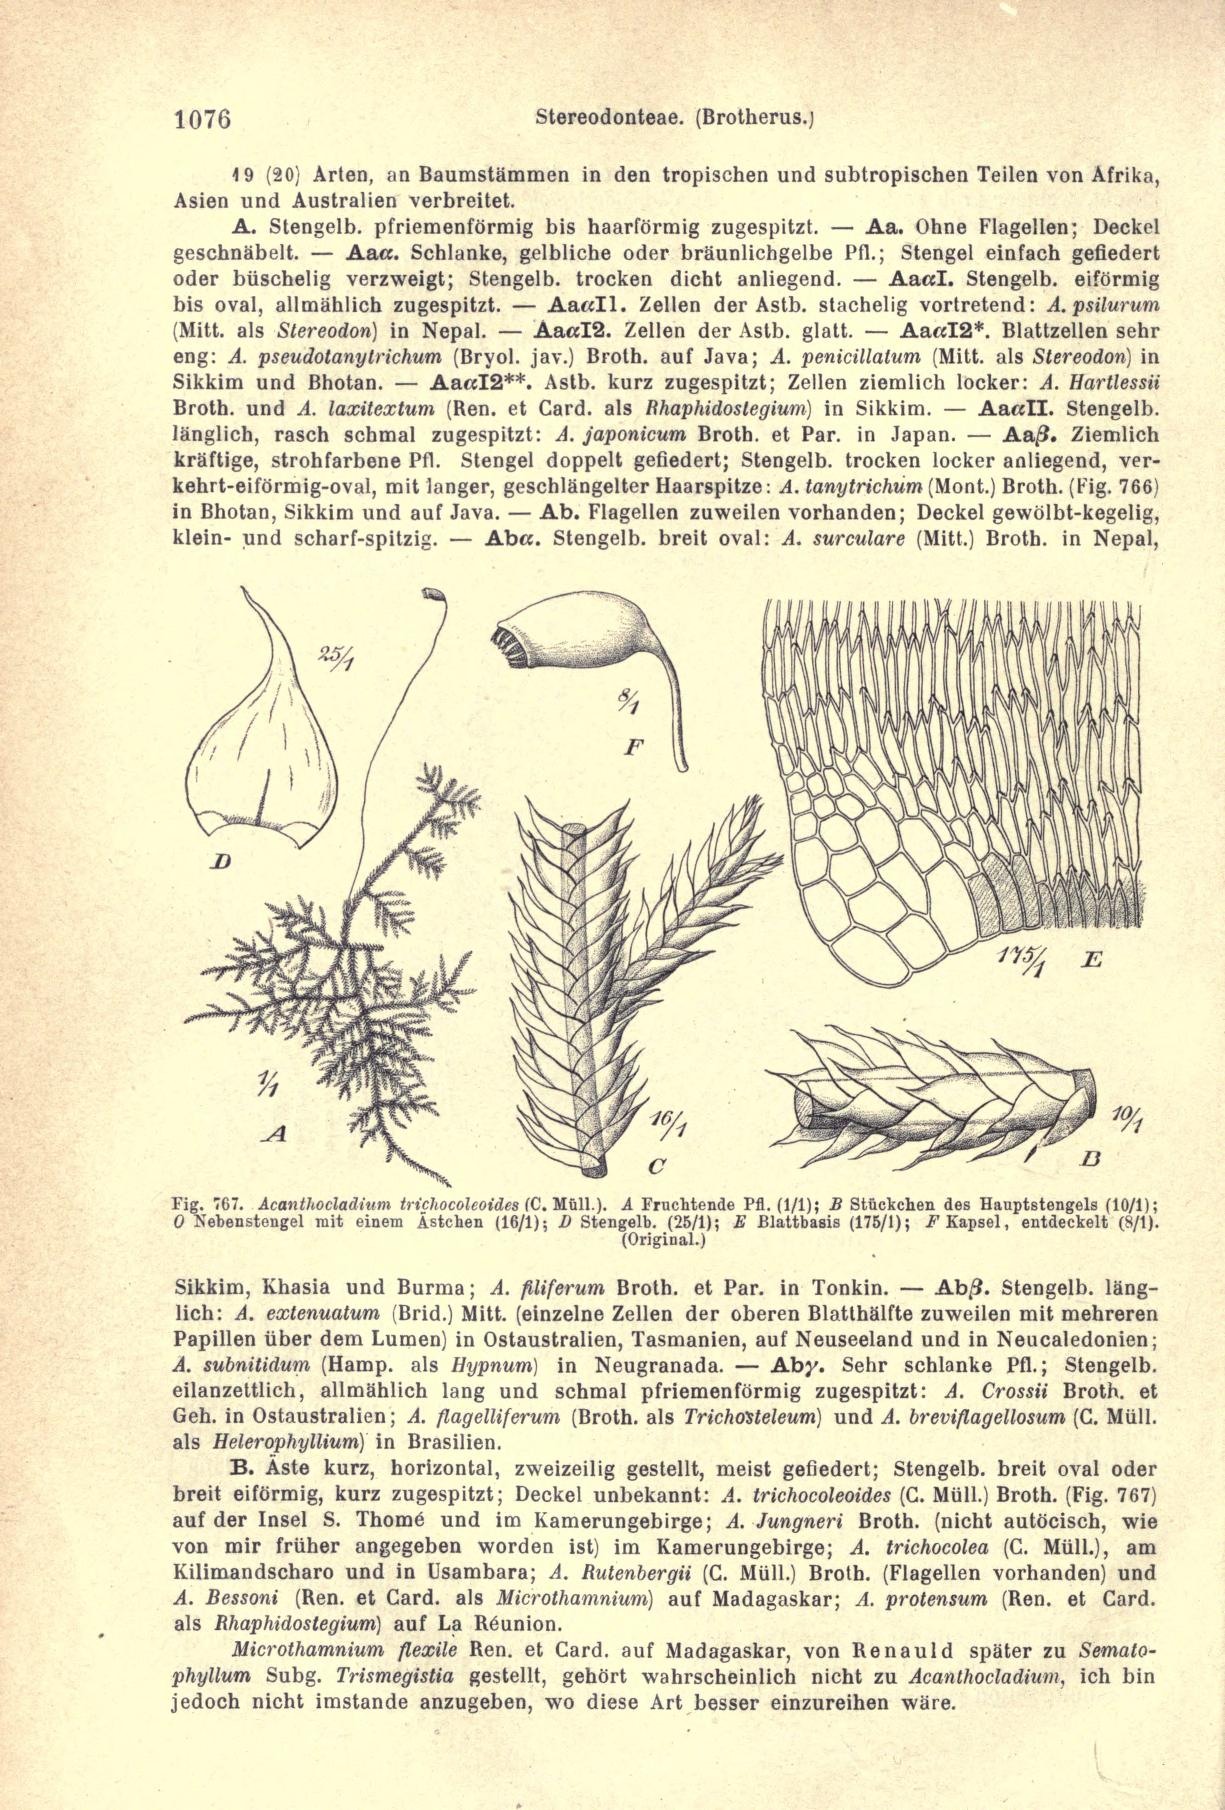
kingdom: Plantae
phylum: Marchantiophyta
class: Jungermanniopsida
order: Jungermanniales
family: Anastrophyllaceae
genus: Tetralophozia
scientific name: Tetralophozia setiformis
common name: Monster pawwort
